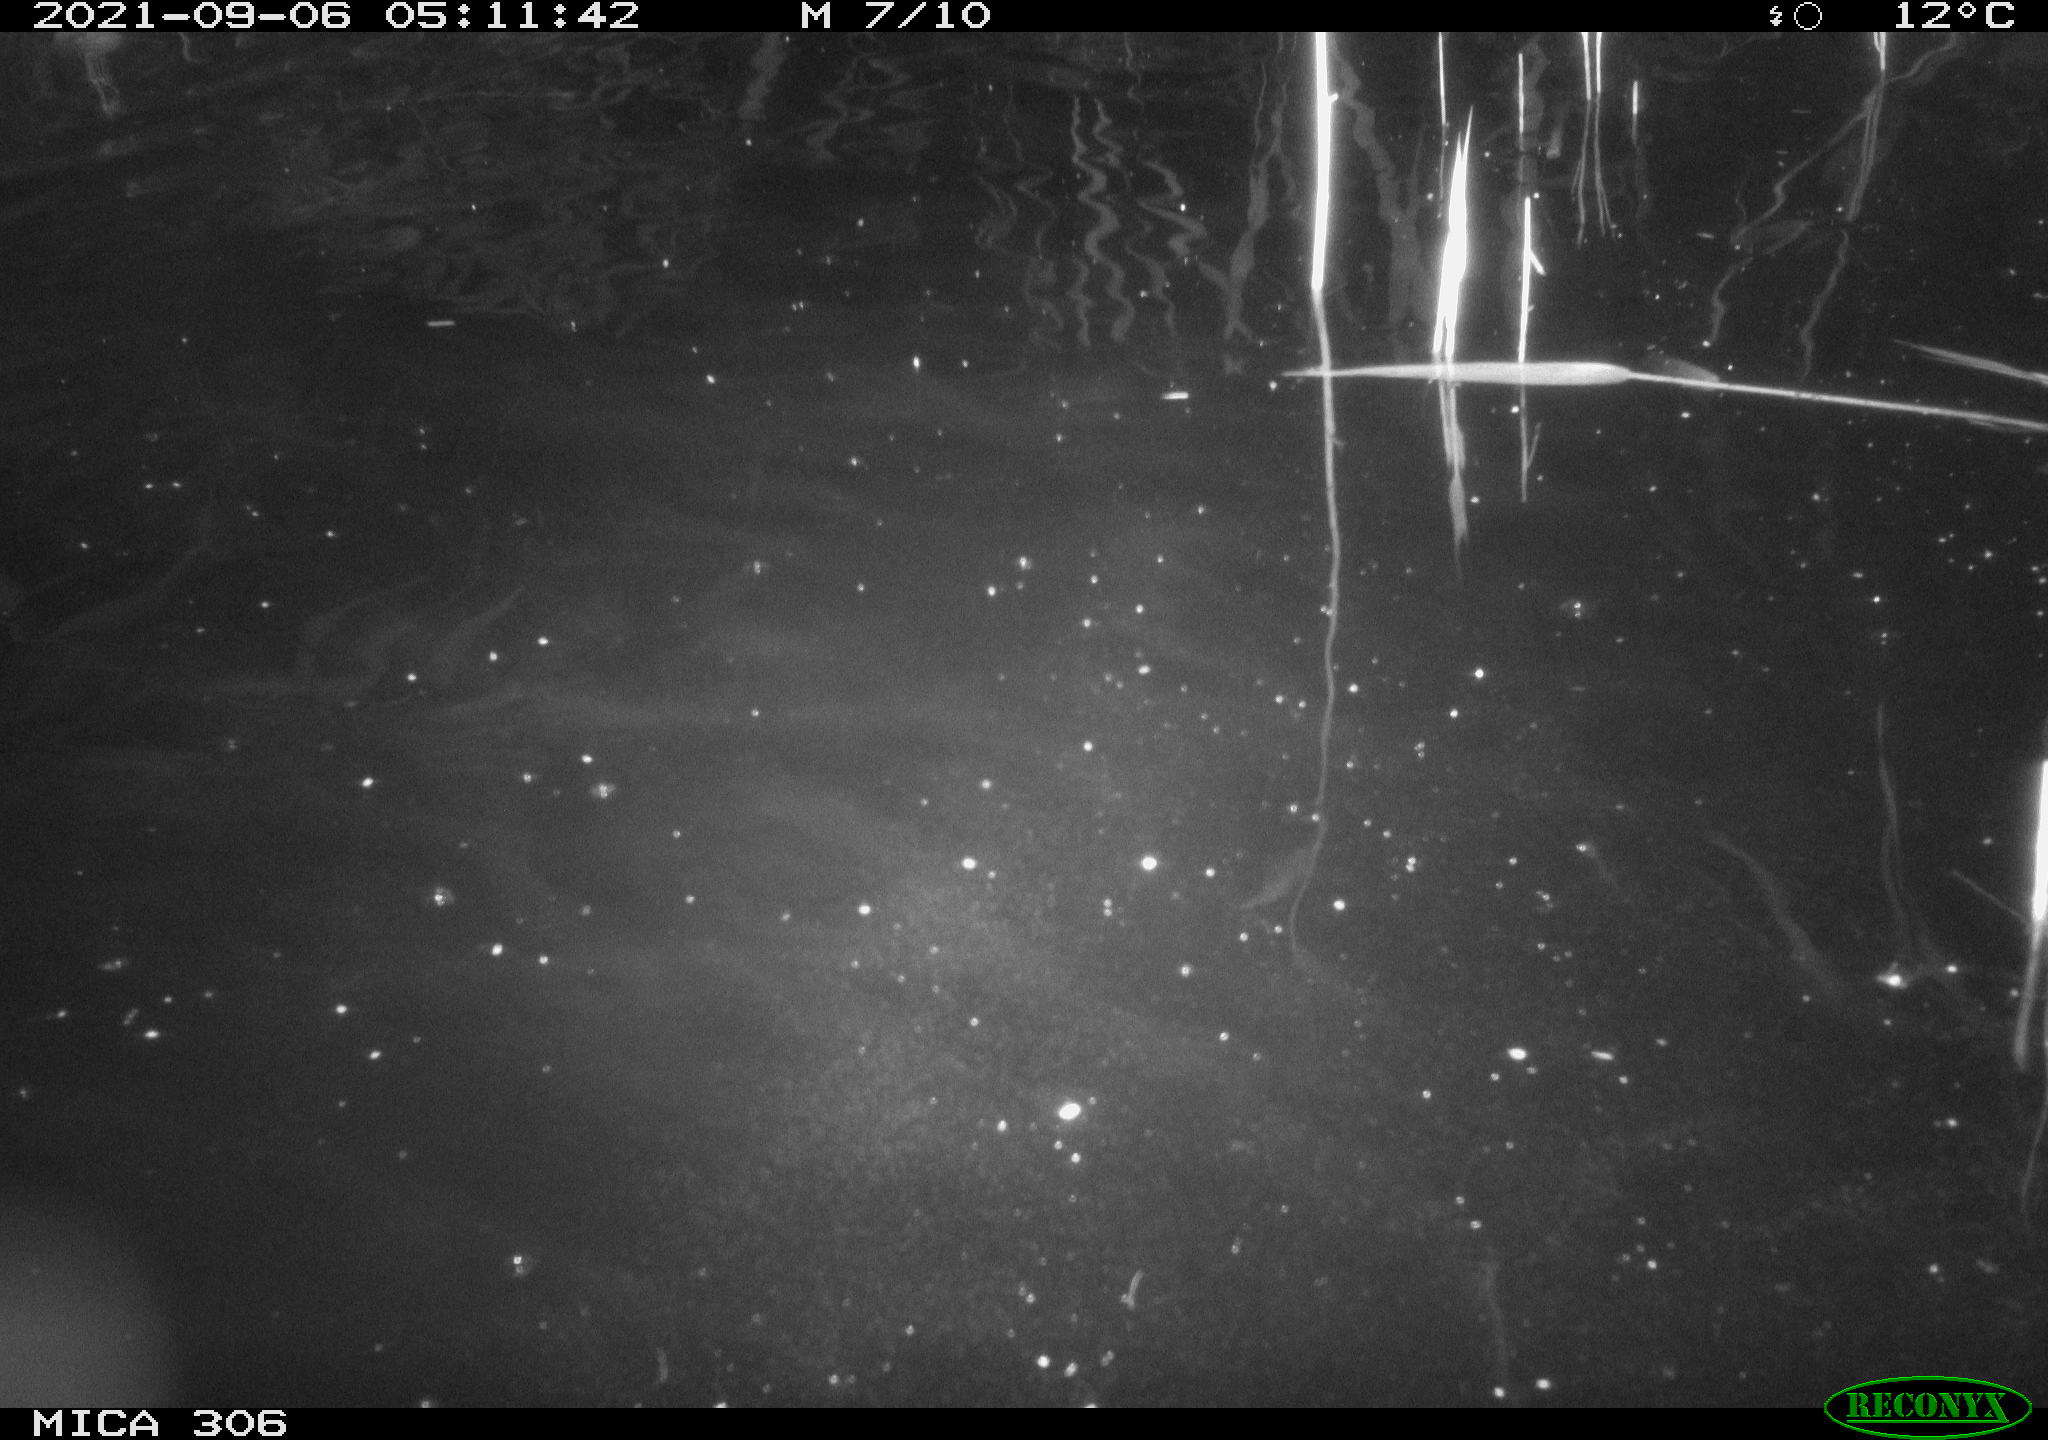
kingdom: Animalia
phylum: Chordata
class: Mammalia
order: Rodentia
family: Cricetidae
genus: Ondatra
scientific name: Ondatra zibethicus
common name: Muskrat
